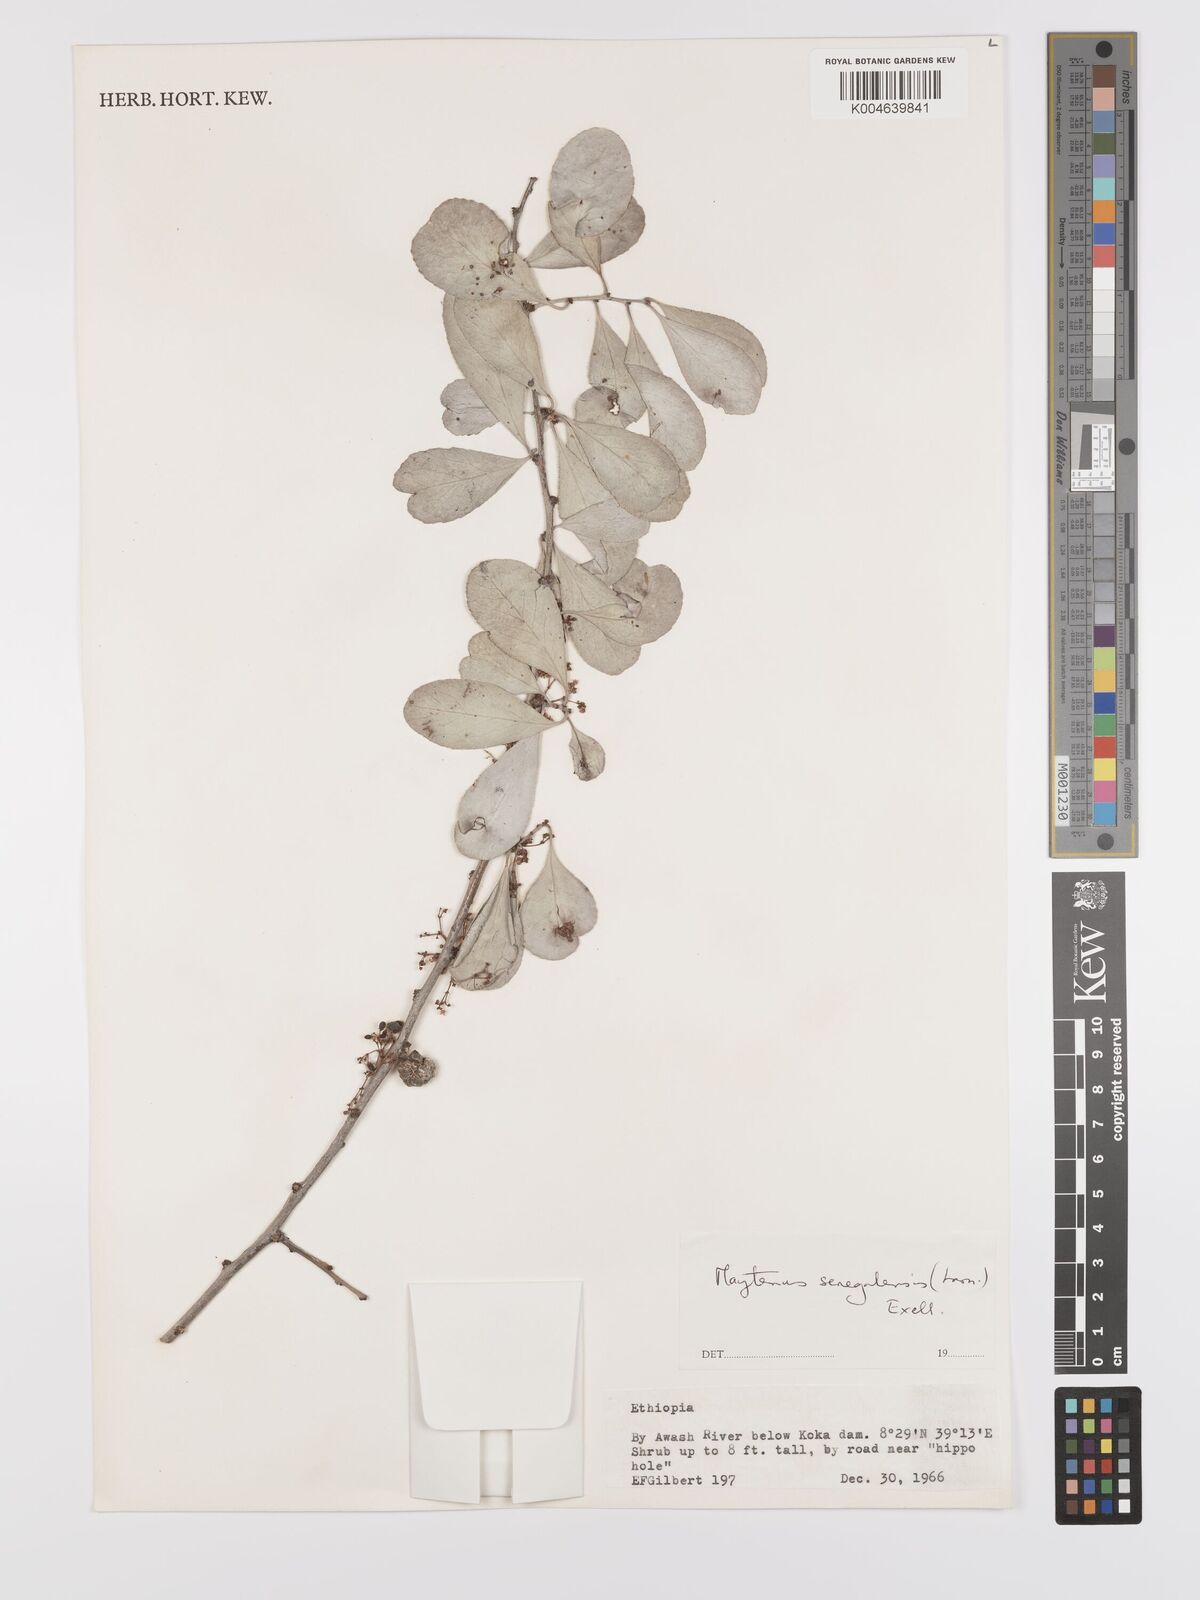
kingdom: Plantae
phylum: Tracheophyta
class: Magnoliopsida
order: Celastrales
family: Celastraceae
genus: Gymnosporia
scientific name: Gymnosporia senegalensis
